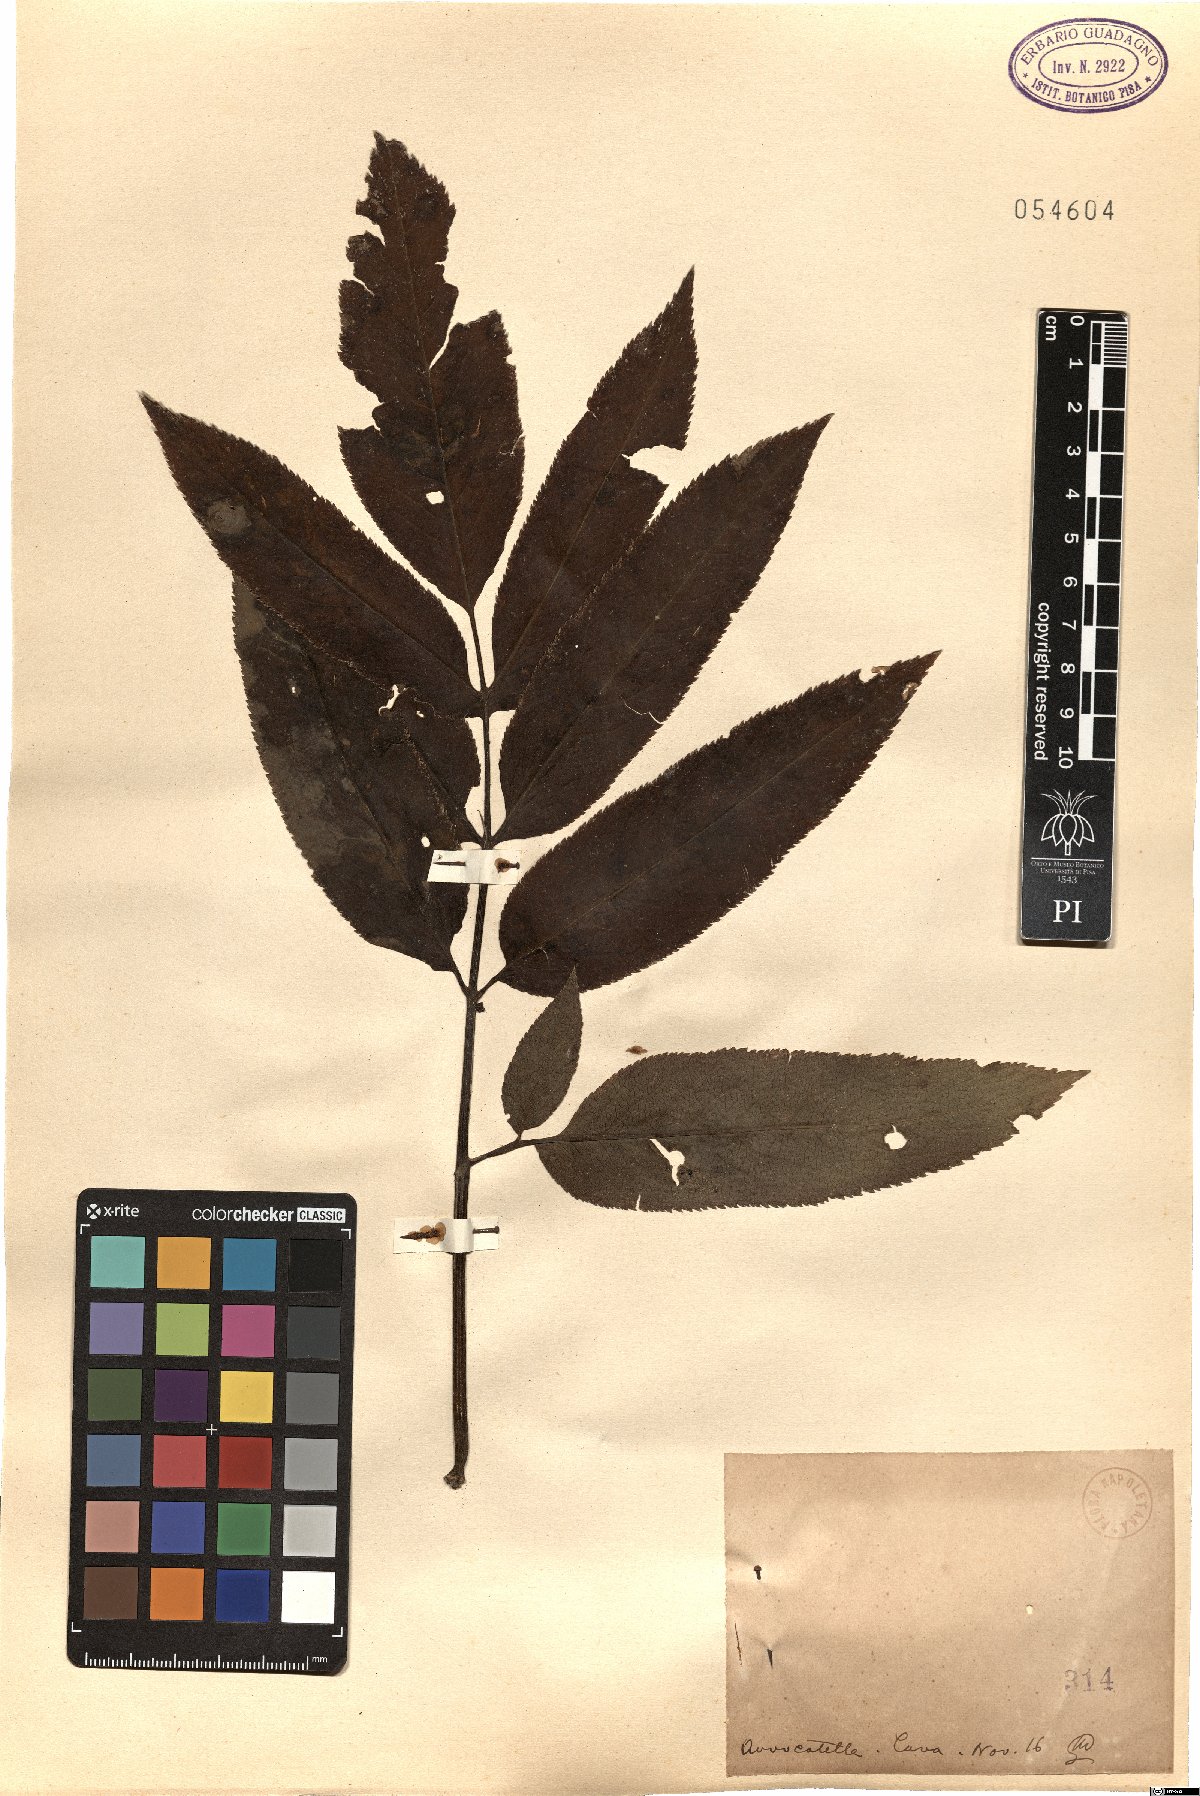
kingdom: Plantae
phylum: Tracheophyta
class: Magnoliopsida
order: Dipsacales
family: Viburnaceae
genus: Sambucus
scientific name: Sambucus
